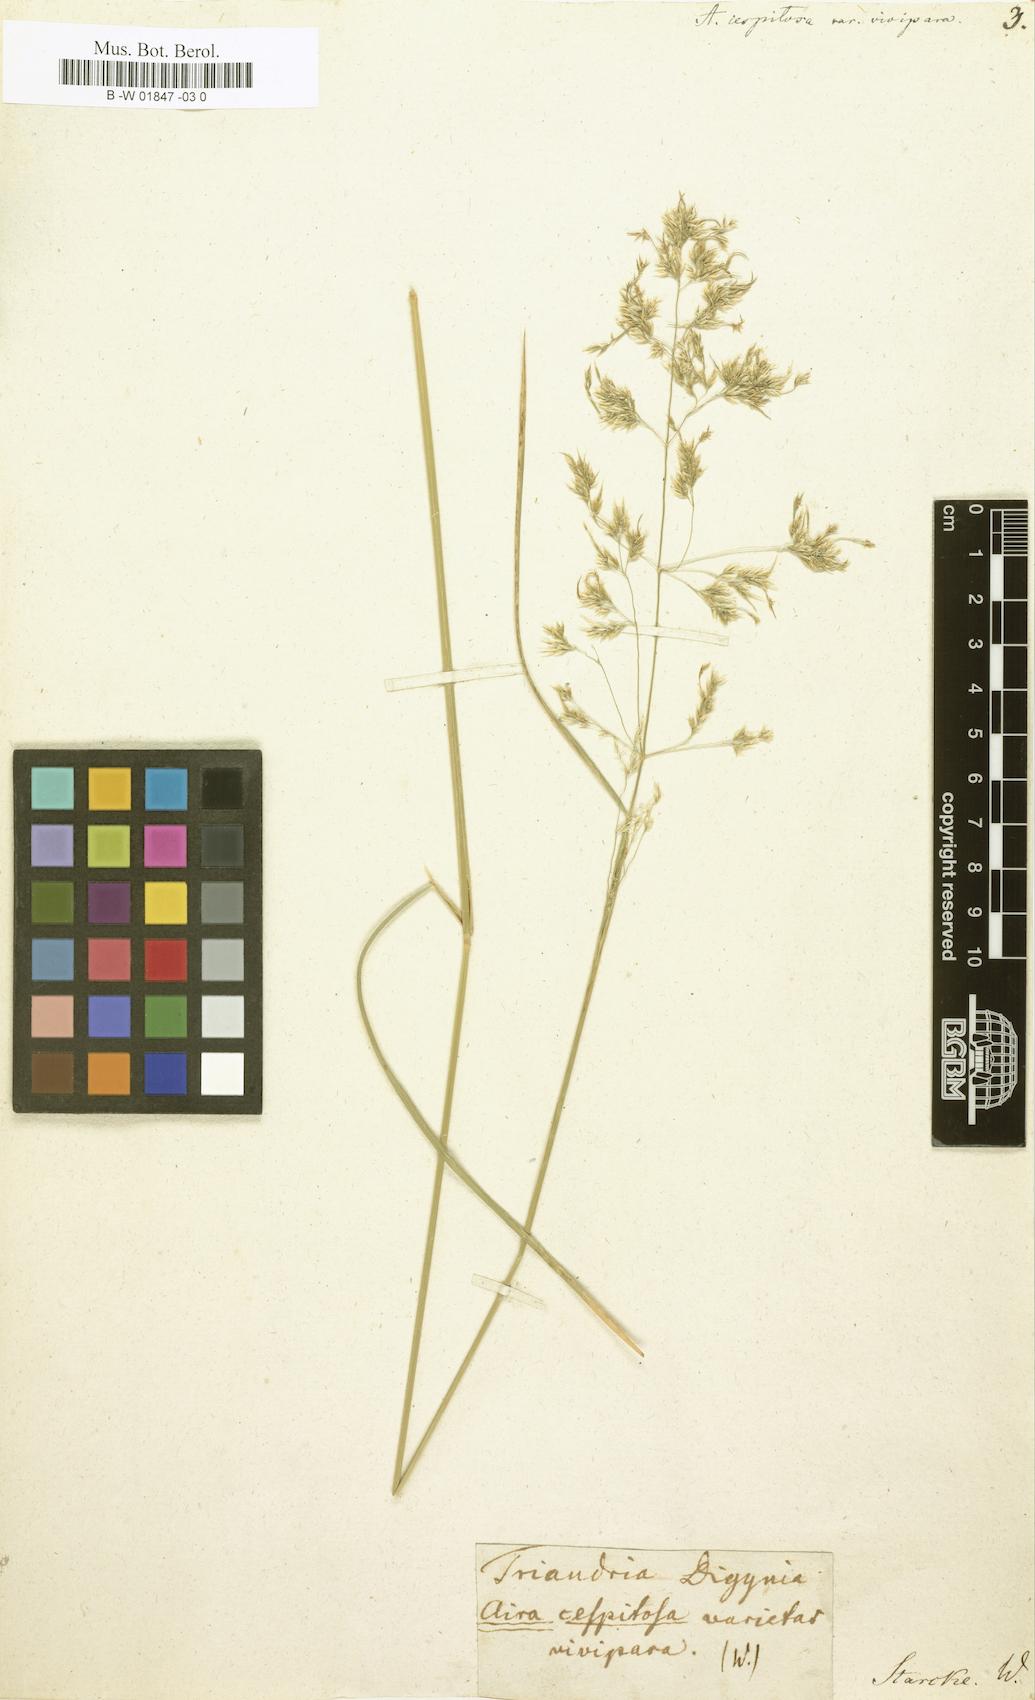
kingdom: Plantae
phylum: Tracheophyta
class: Liliopsida
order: Poales
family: Poaceae
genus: Poa
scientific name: Poa alopecurus
